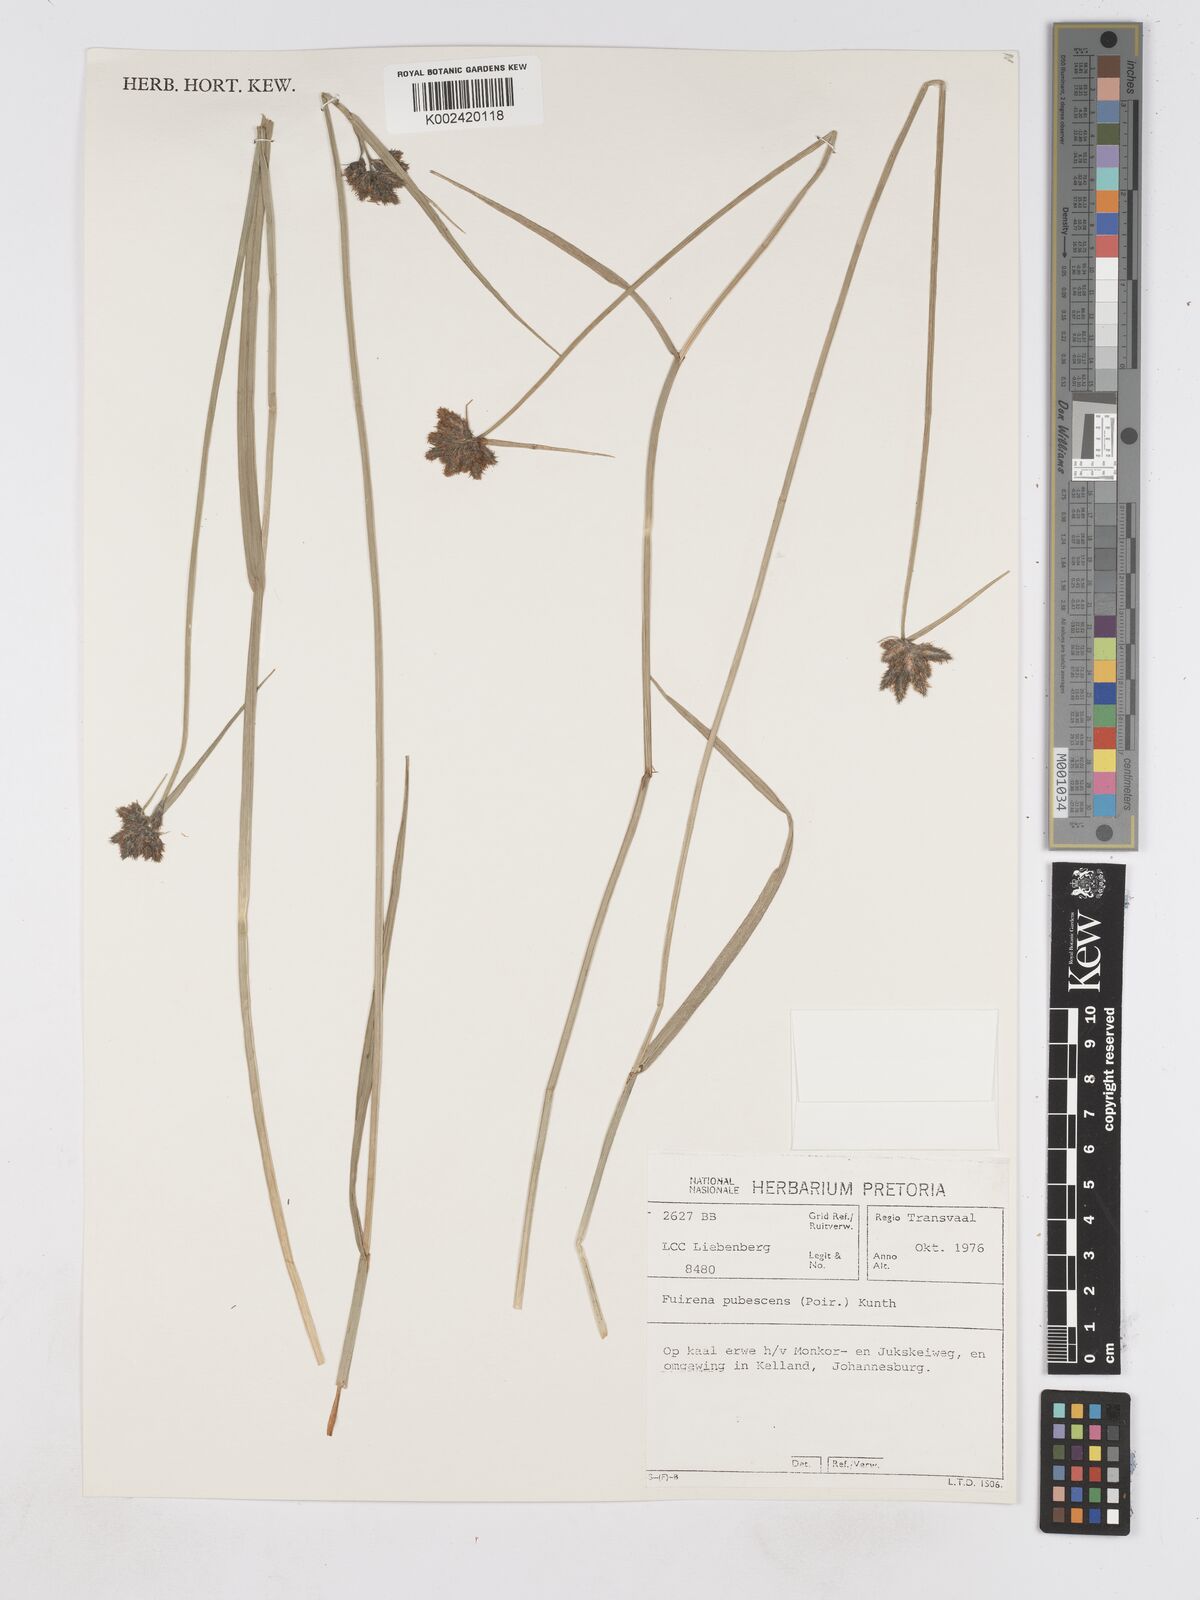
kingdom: Plantae
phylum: Tracheophyta
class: Liliopsida
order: Poales
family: Cyperaceae
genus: Fuirena
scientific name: Fuirena pubescens
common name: Hairy sedge
